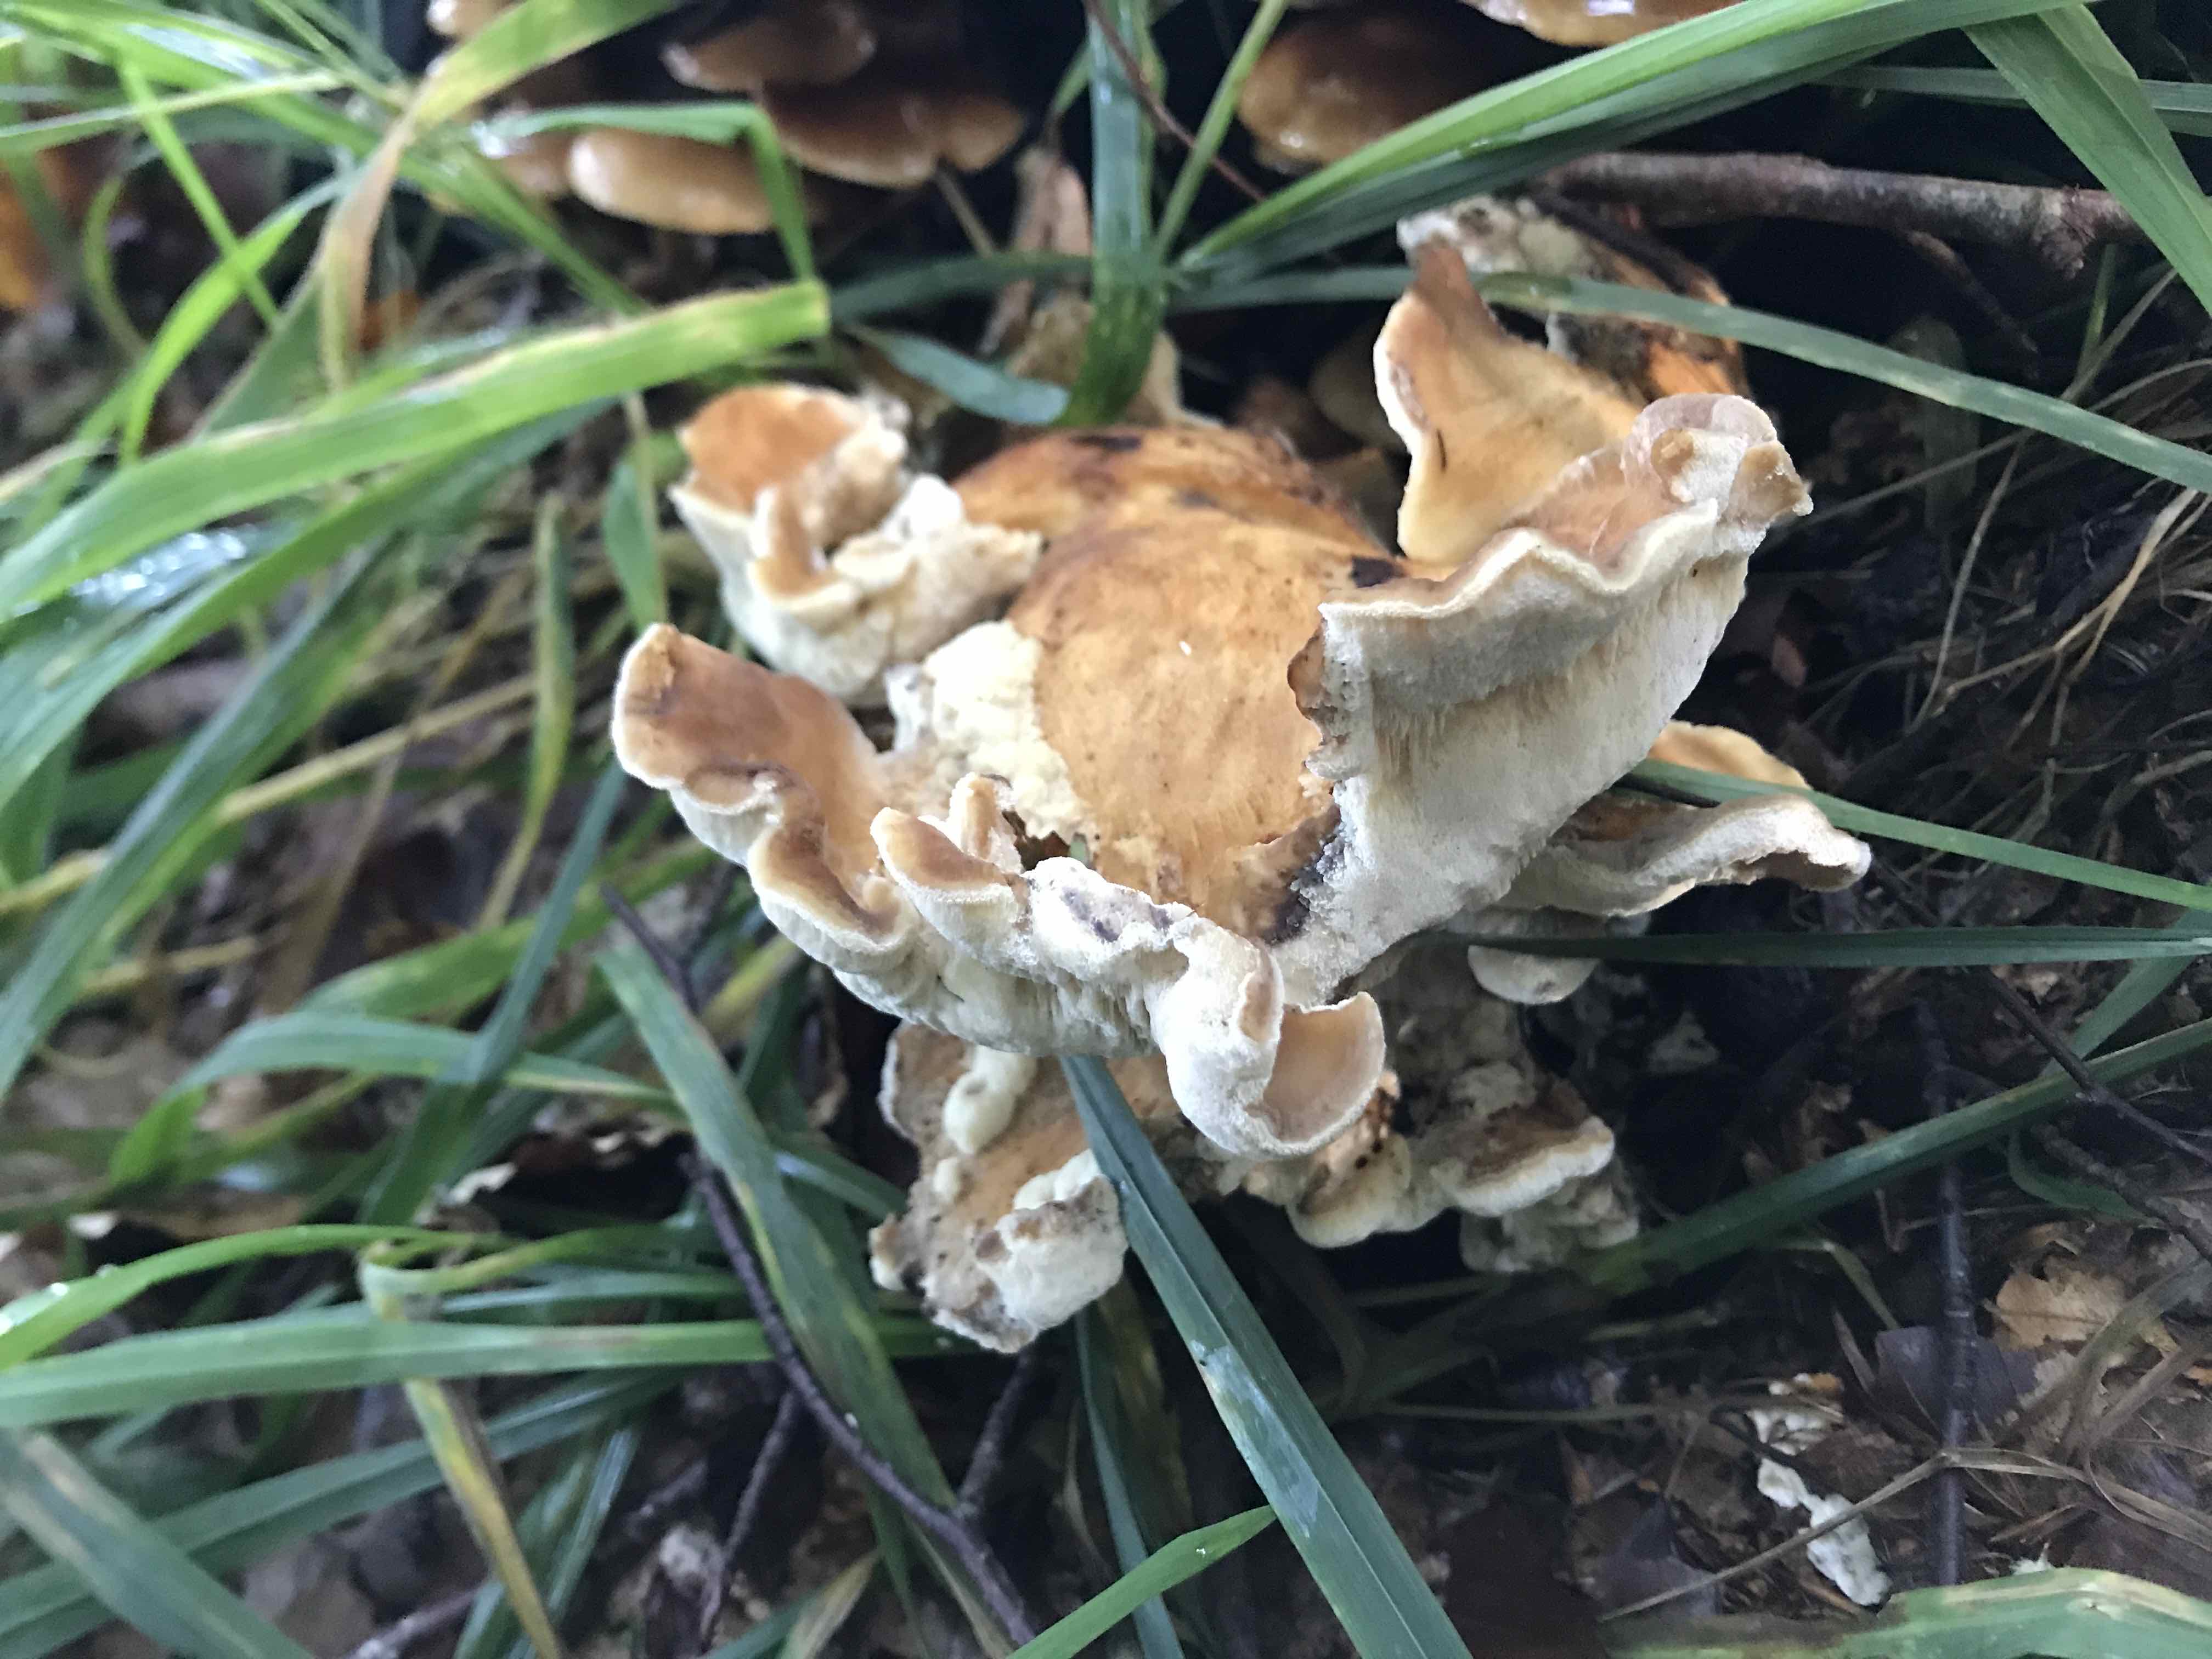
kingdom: Fungi
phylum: Basidiomycota
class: Agaricomycetes
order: Polyporales
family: Meripilaceae
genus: Meripilus
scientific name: Meripilus giganteus
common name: kæmpeporesvamp
